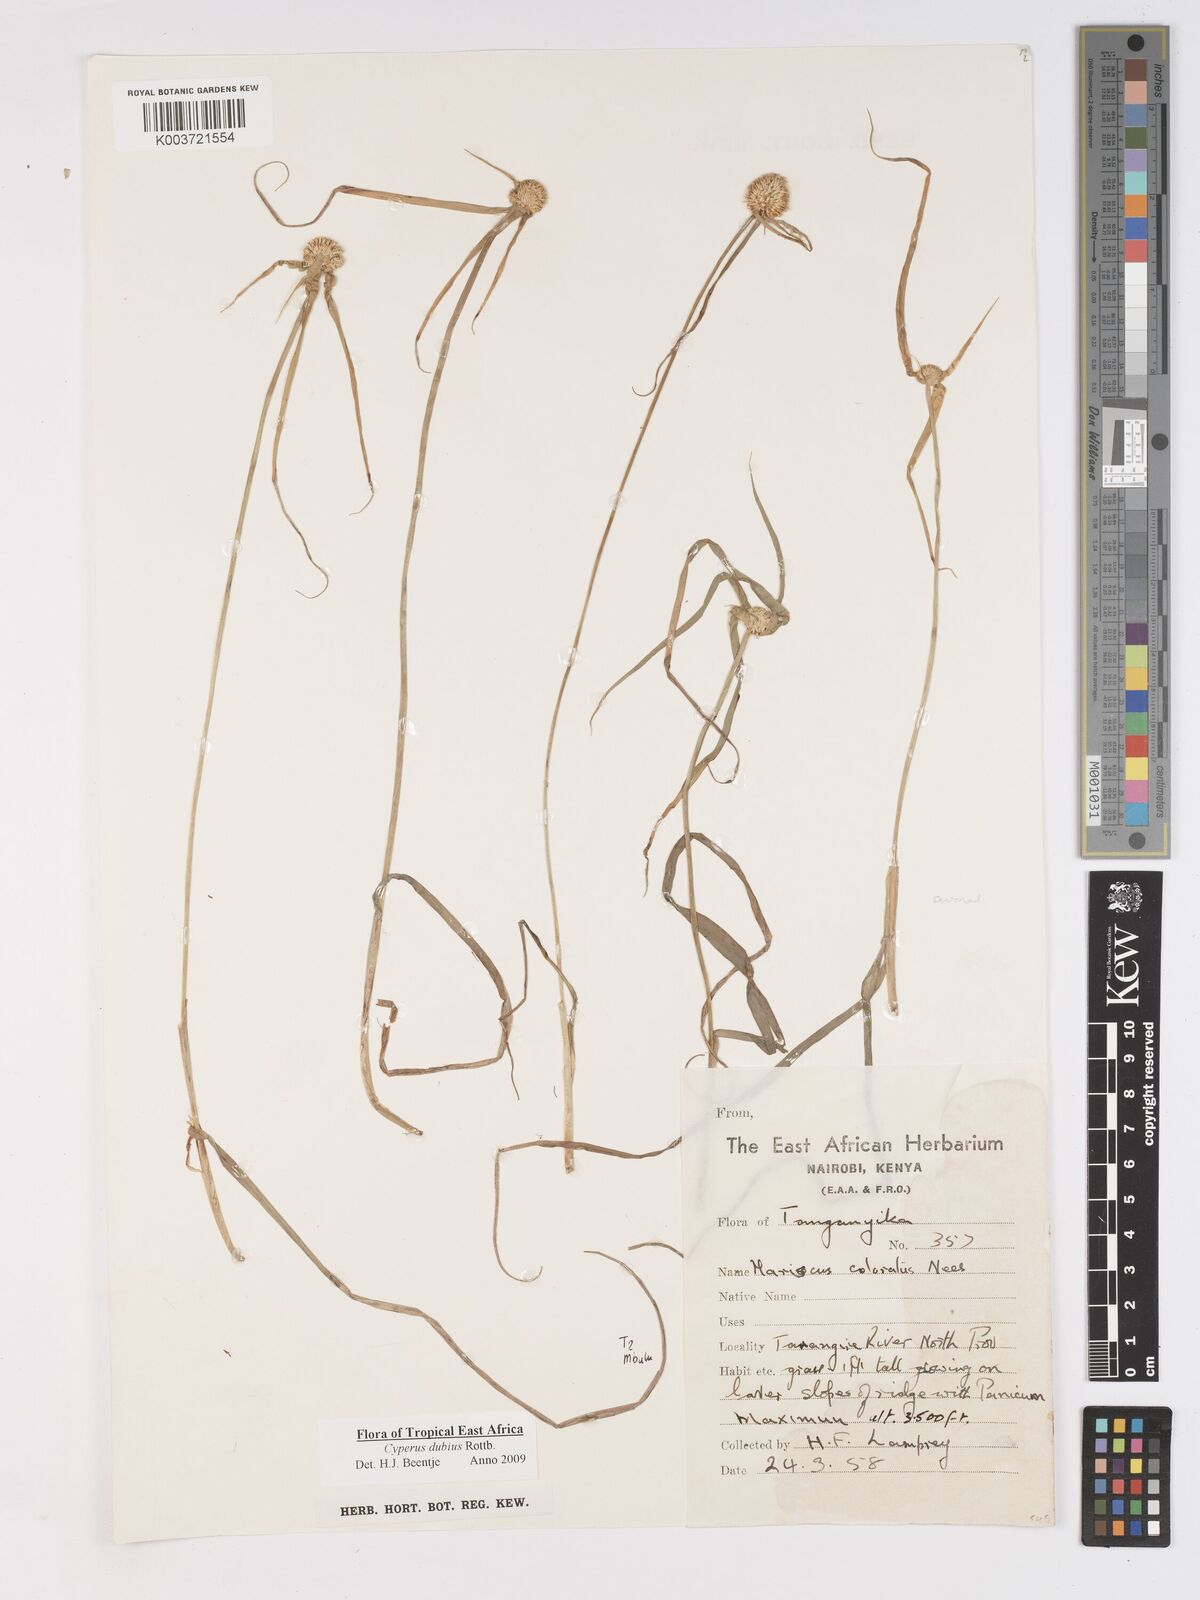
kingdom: Plantae
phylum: Tracheophyta
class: Liliopsida
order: Poales
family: Cyperaceae
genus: Cyperus
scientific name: Cyperus dubius
